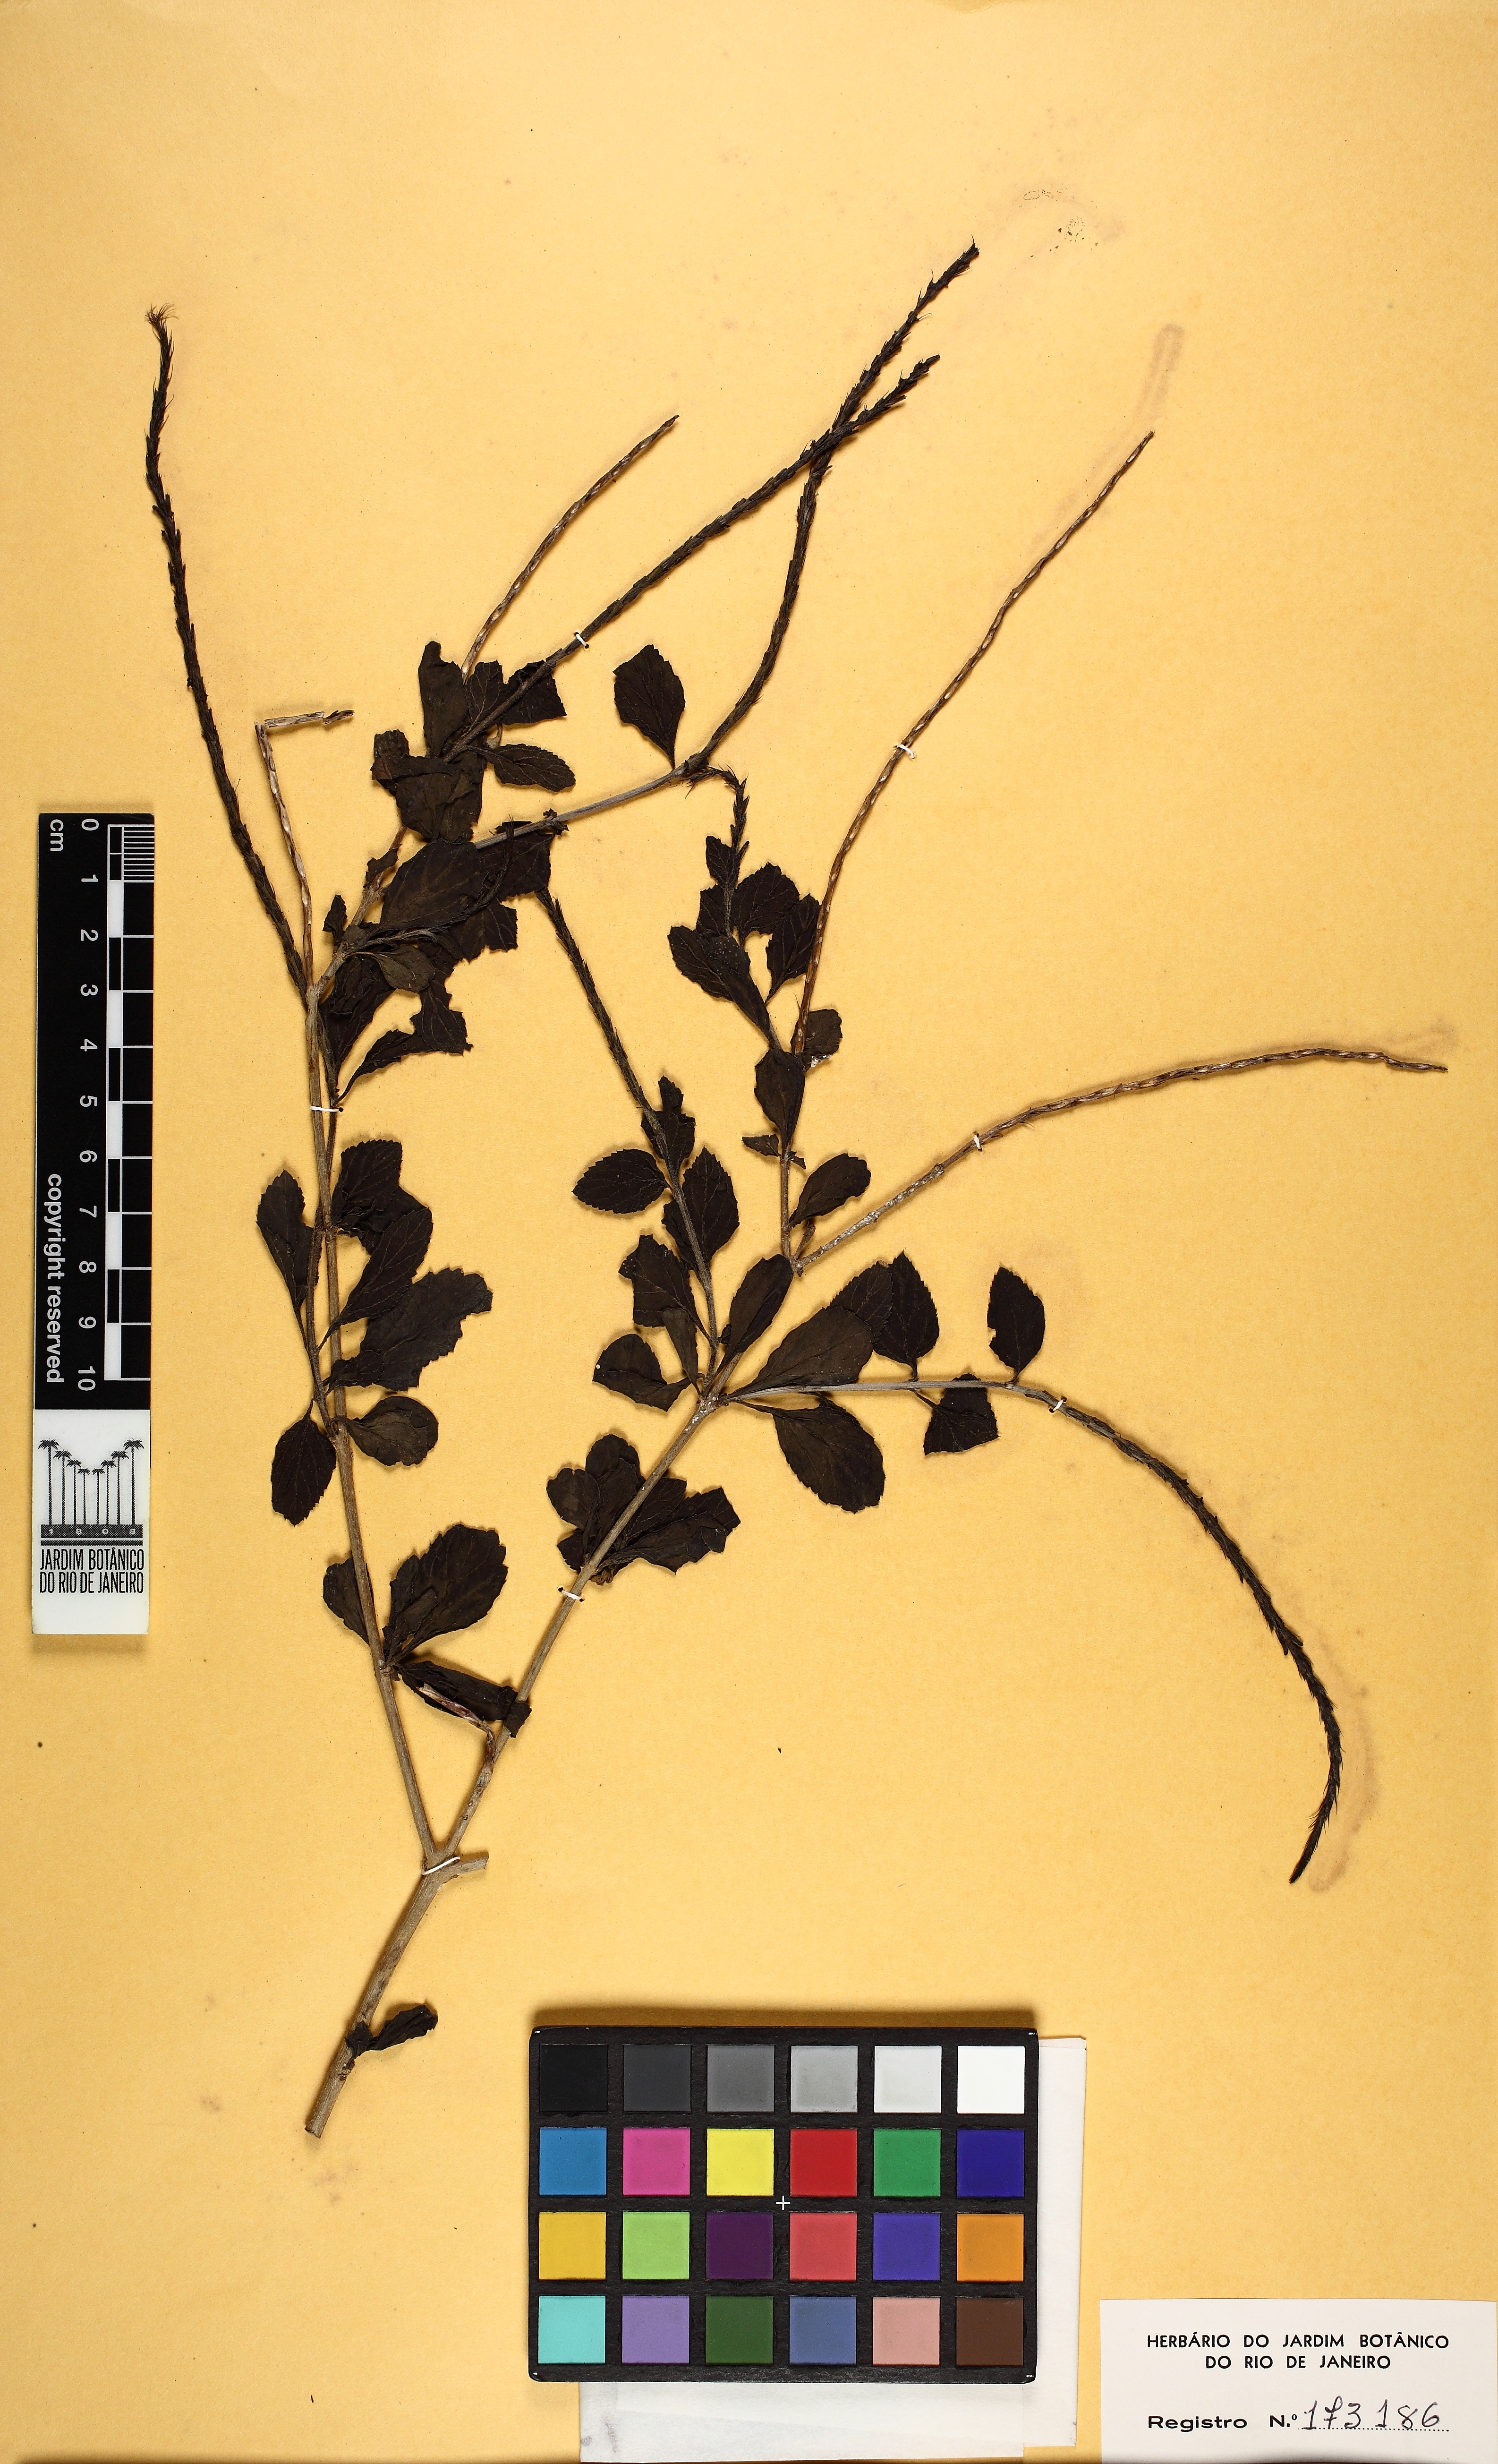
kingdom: Plantae
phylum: Tracheophyta
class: Magnoliopsida
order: Lamiales
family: Verbenaceae
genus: Stachytarpheta
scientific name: Stachytarpheta
